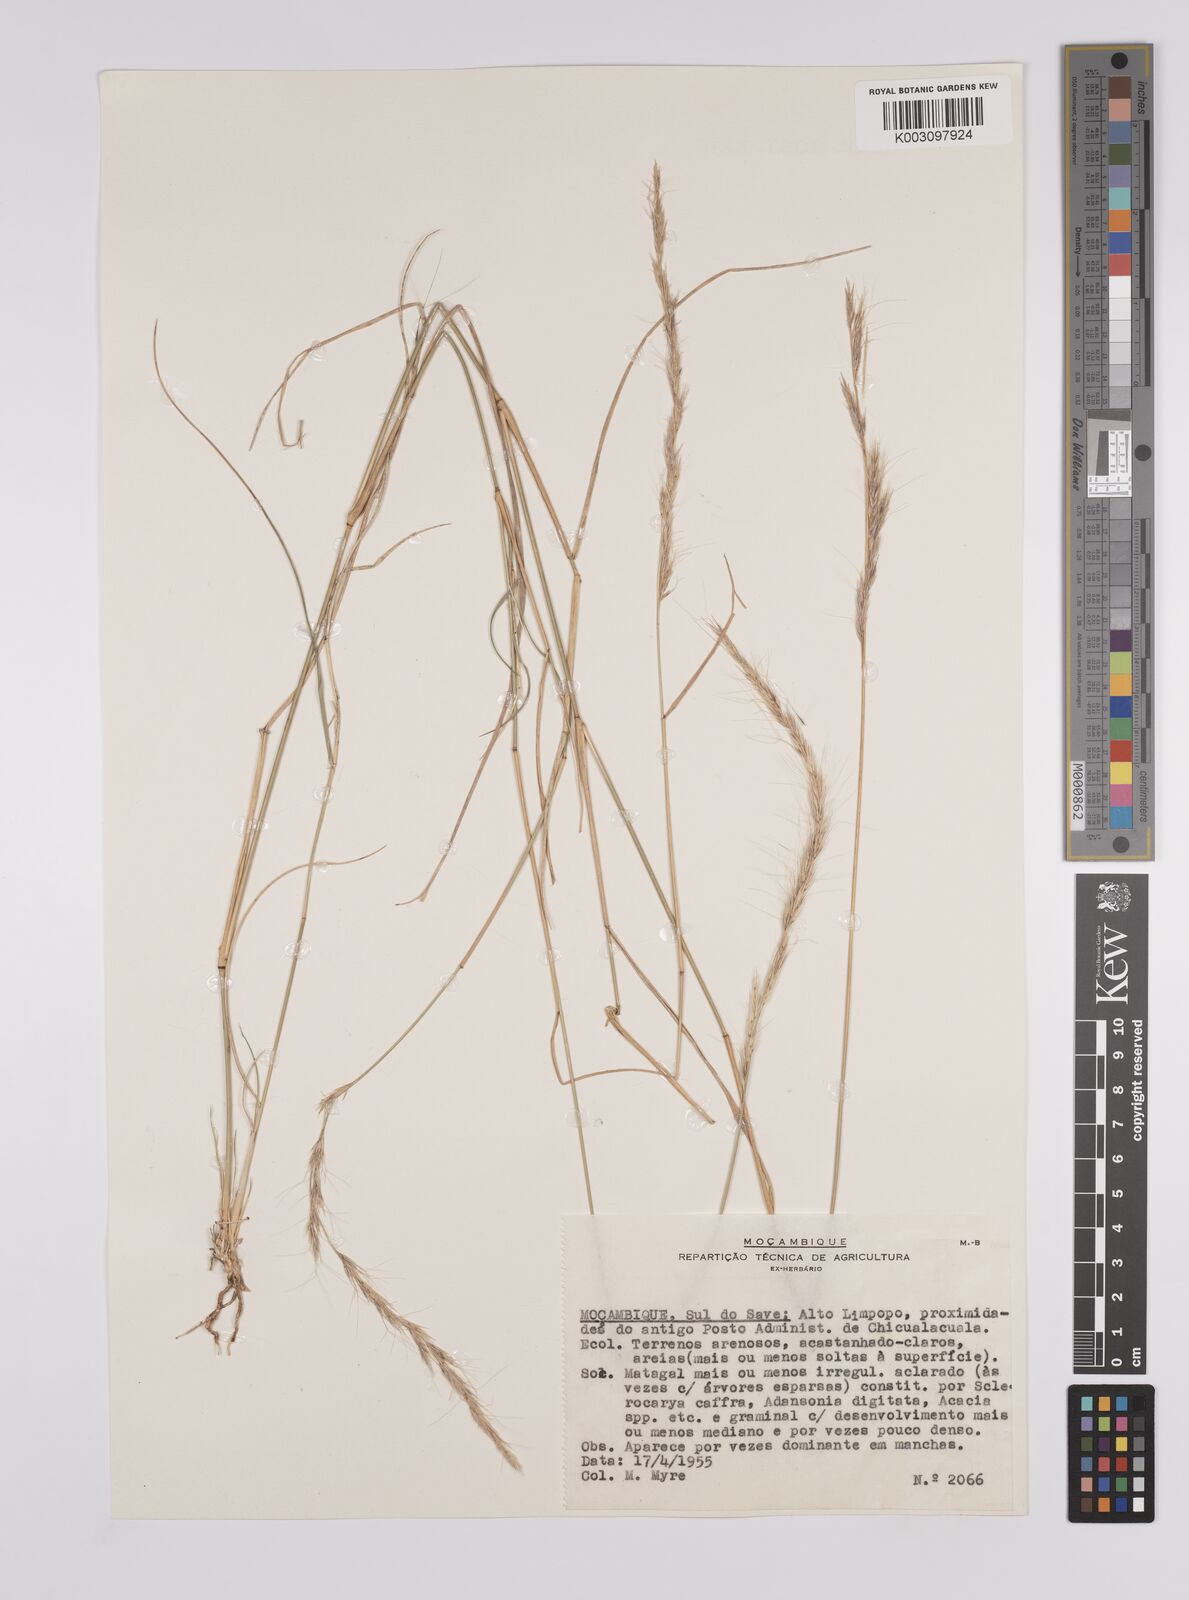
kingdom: Plantae
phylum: Tracheophyta
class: Liliopsida
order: Poales
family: Poaceae
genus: Aristida
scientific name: Aristida congesta
